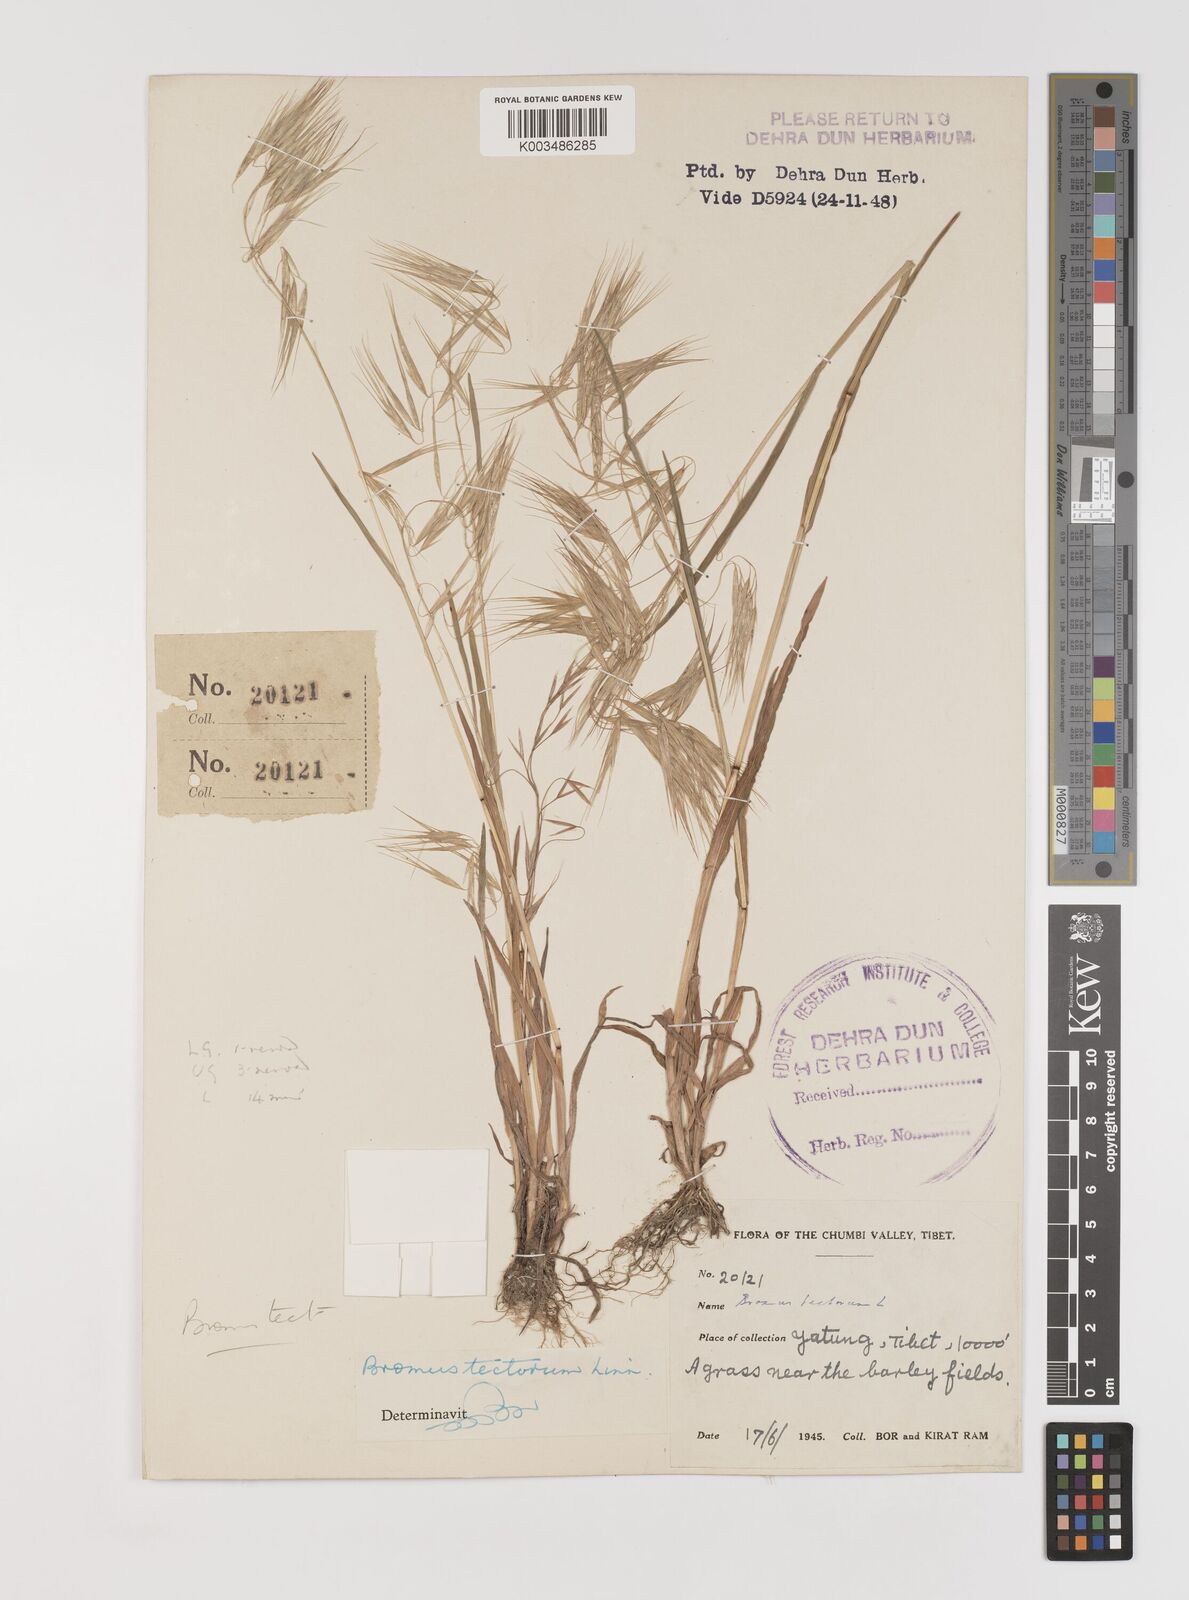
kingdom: Plantae
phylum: Tracheophyta
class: Liliopsida
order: Poales
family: Poaceae
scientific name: Poaceae
